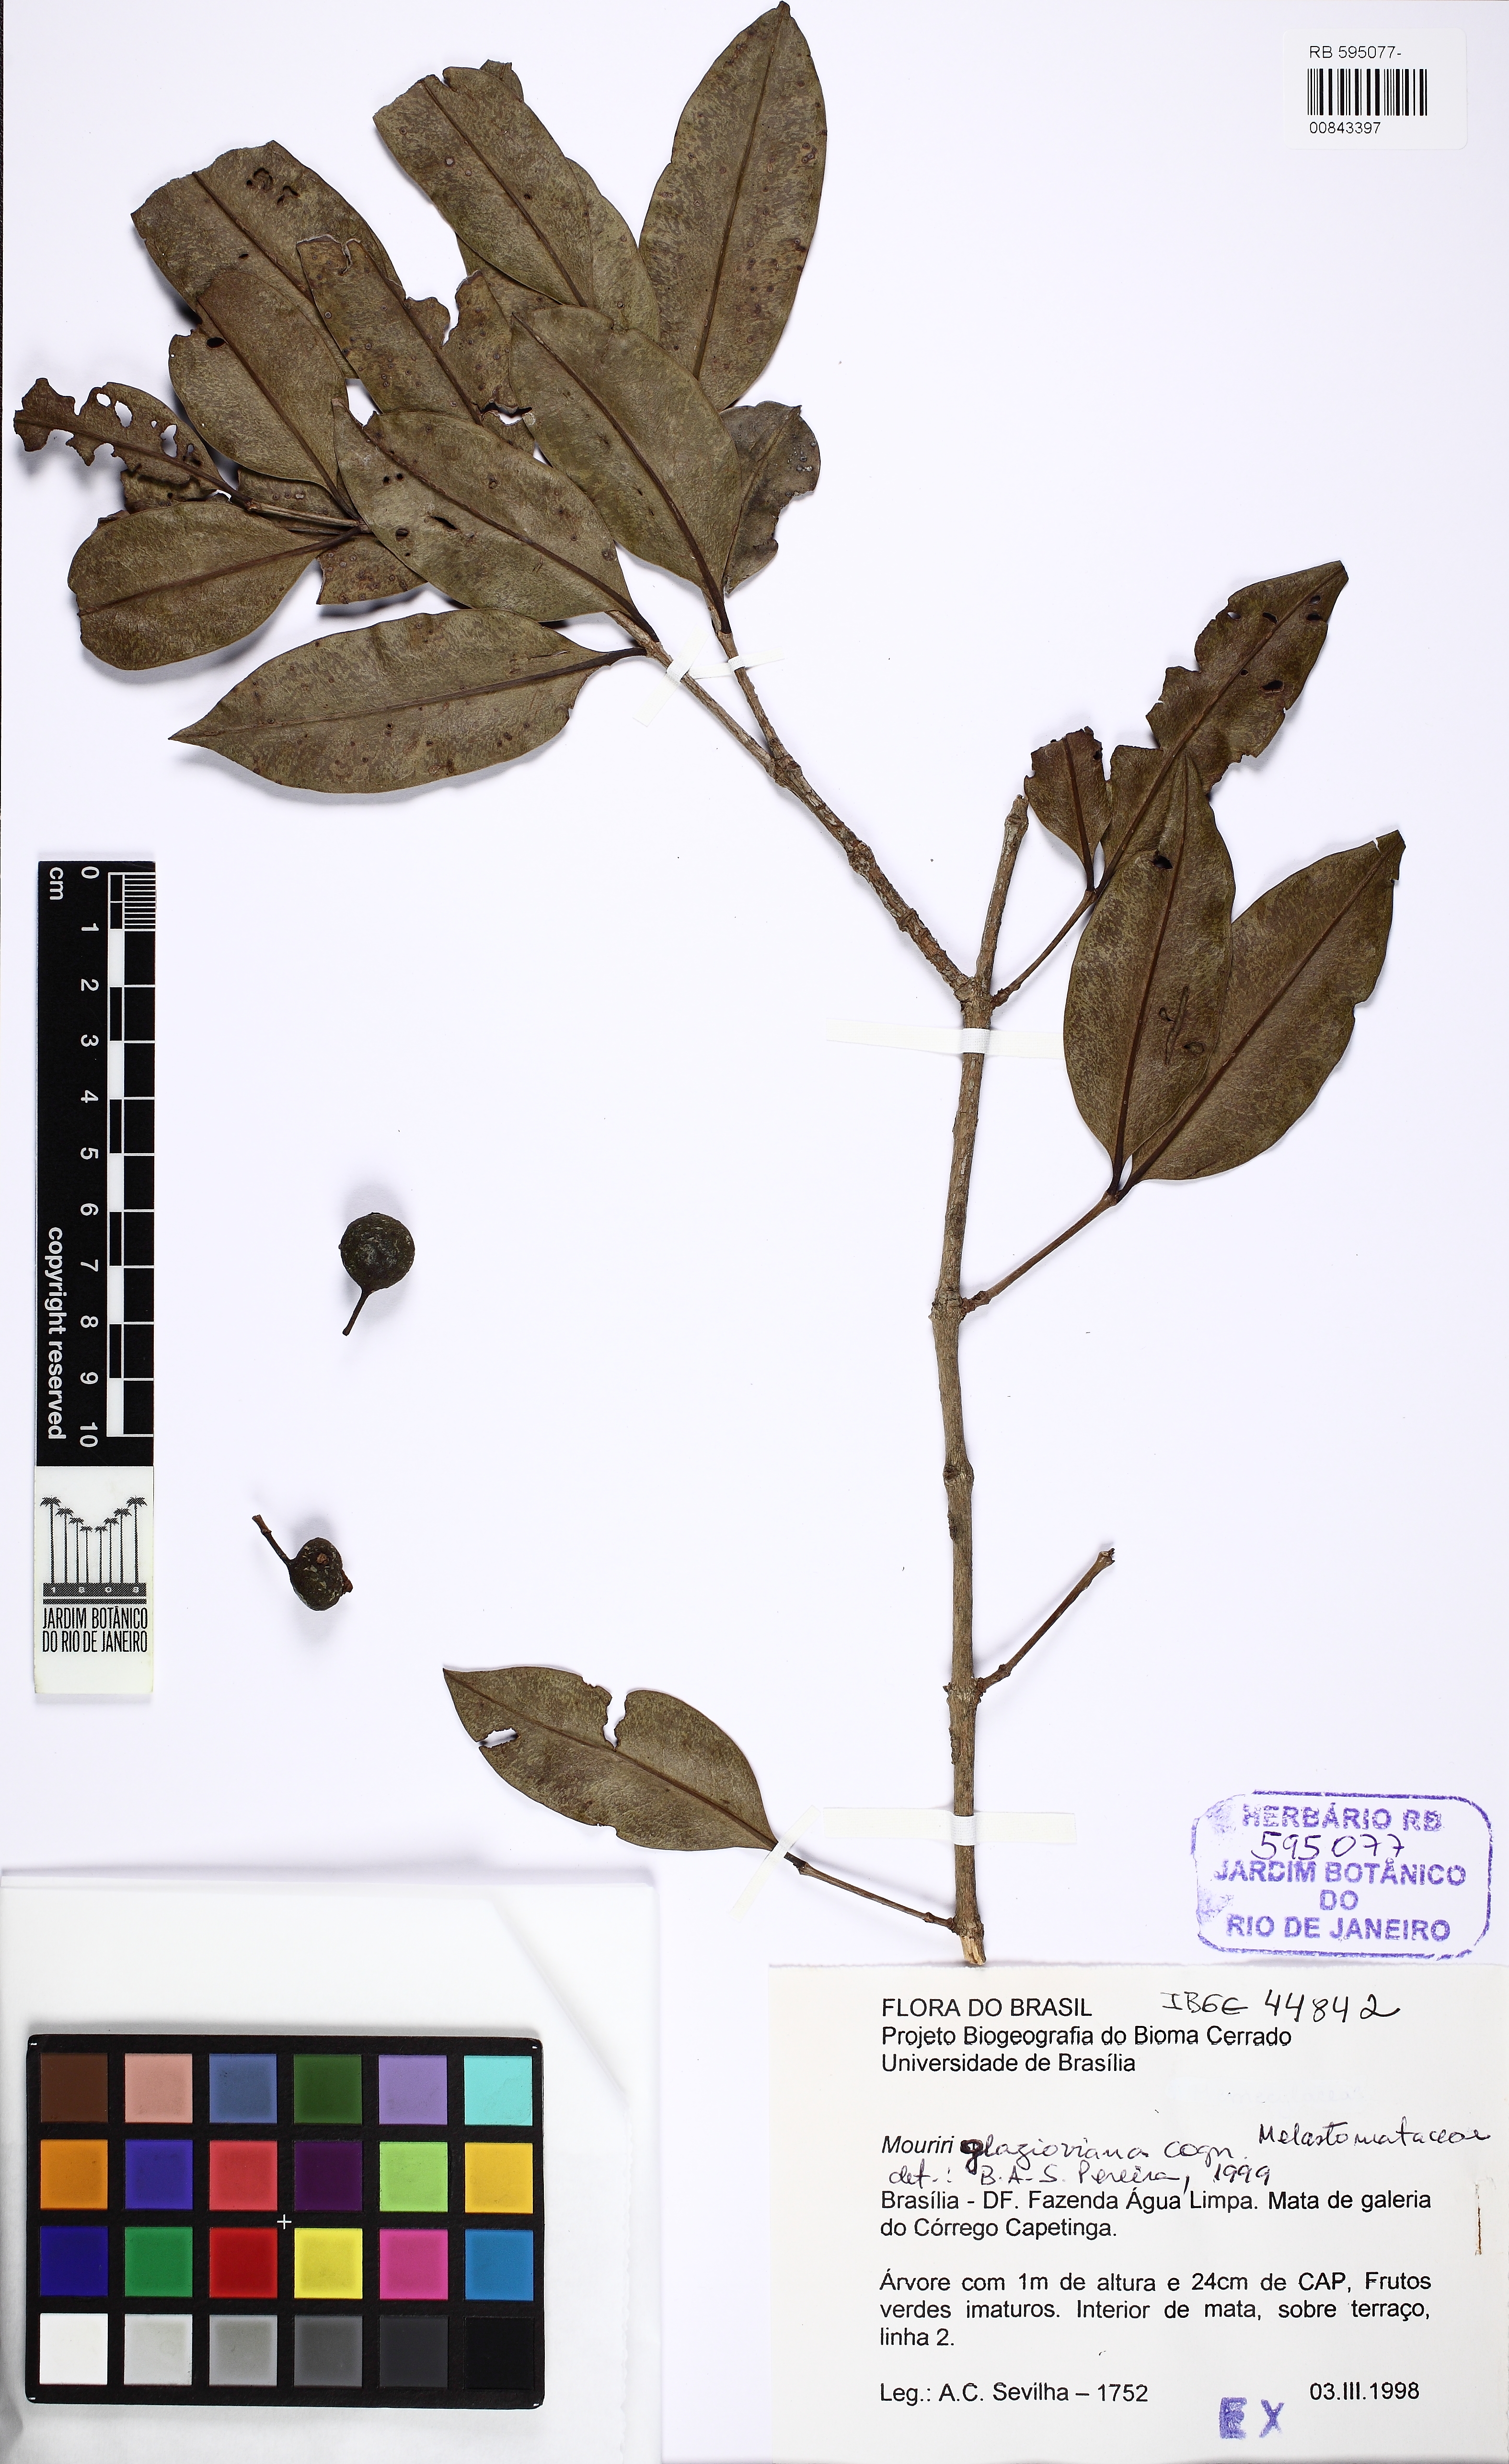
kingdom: Plantae
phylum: Tracheophyta
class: Magnoliopsida
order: Myrtales
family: Melastomataceae
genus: Mouriri
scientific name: Mouriri glazioviana
